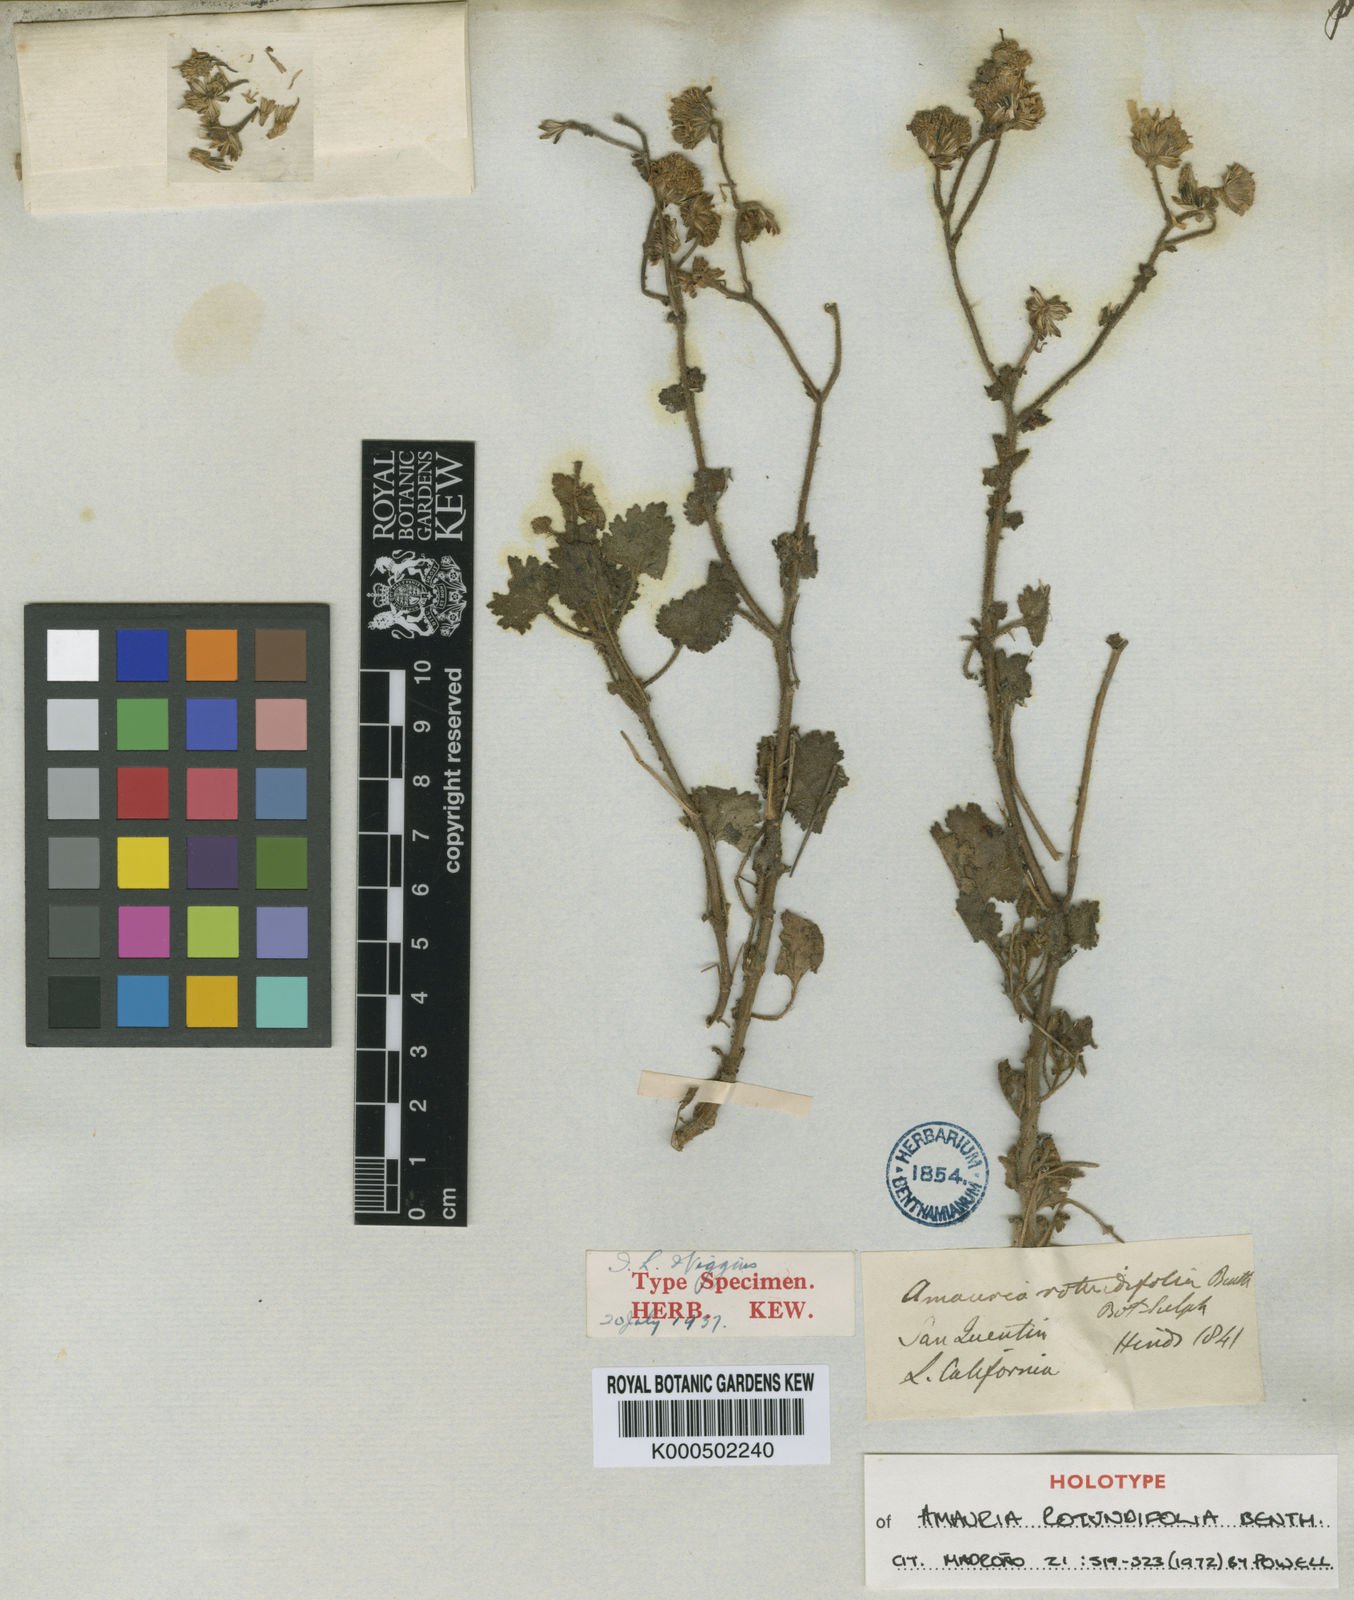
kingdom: Plantae
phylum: Tracheophyta
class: Magnoliopsida
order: Asterales
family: Asteraceae
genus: Perityle
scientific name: Perityle brandegeeana
